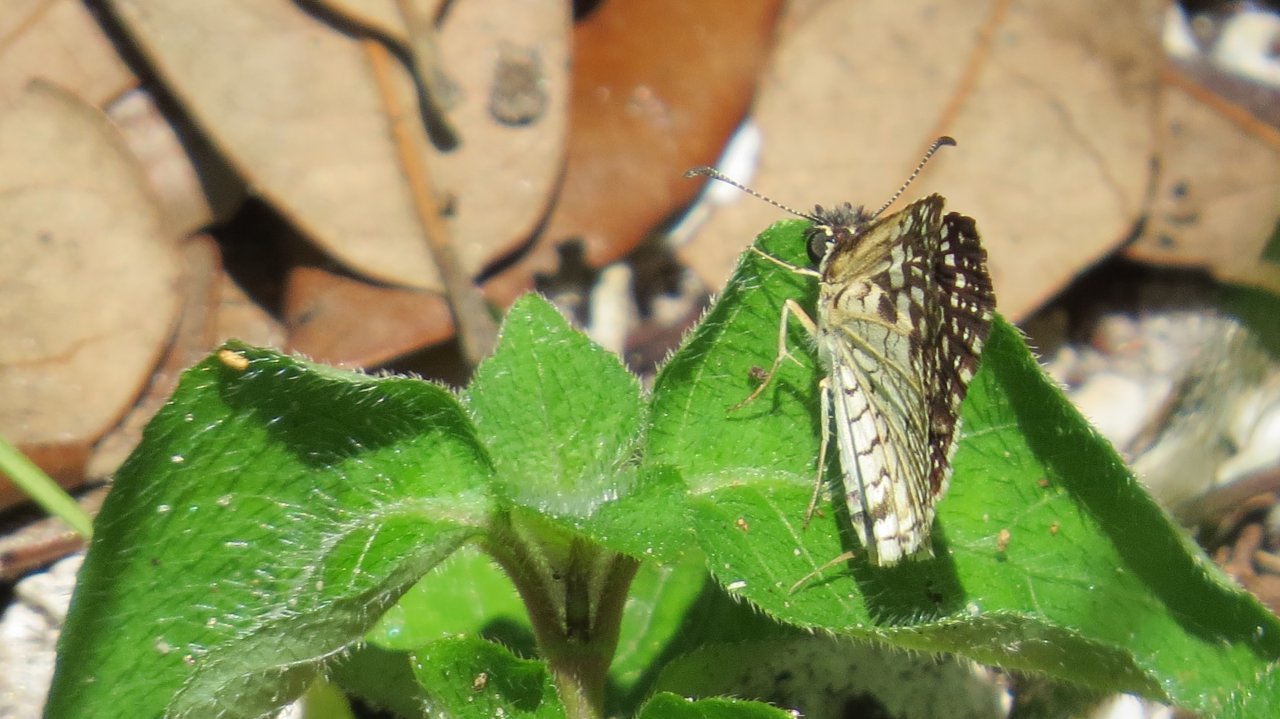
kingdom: Animalia
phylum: Arthropoda
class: Insecta
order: Lepidoptera
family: Hesperiidae
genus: Pyrgus
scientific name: Pyrgus oileus
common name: Tropical Checkered-Skipper
